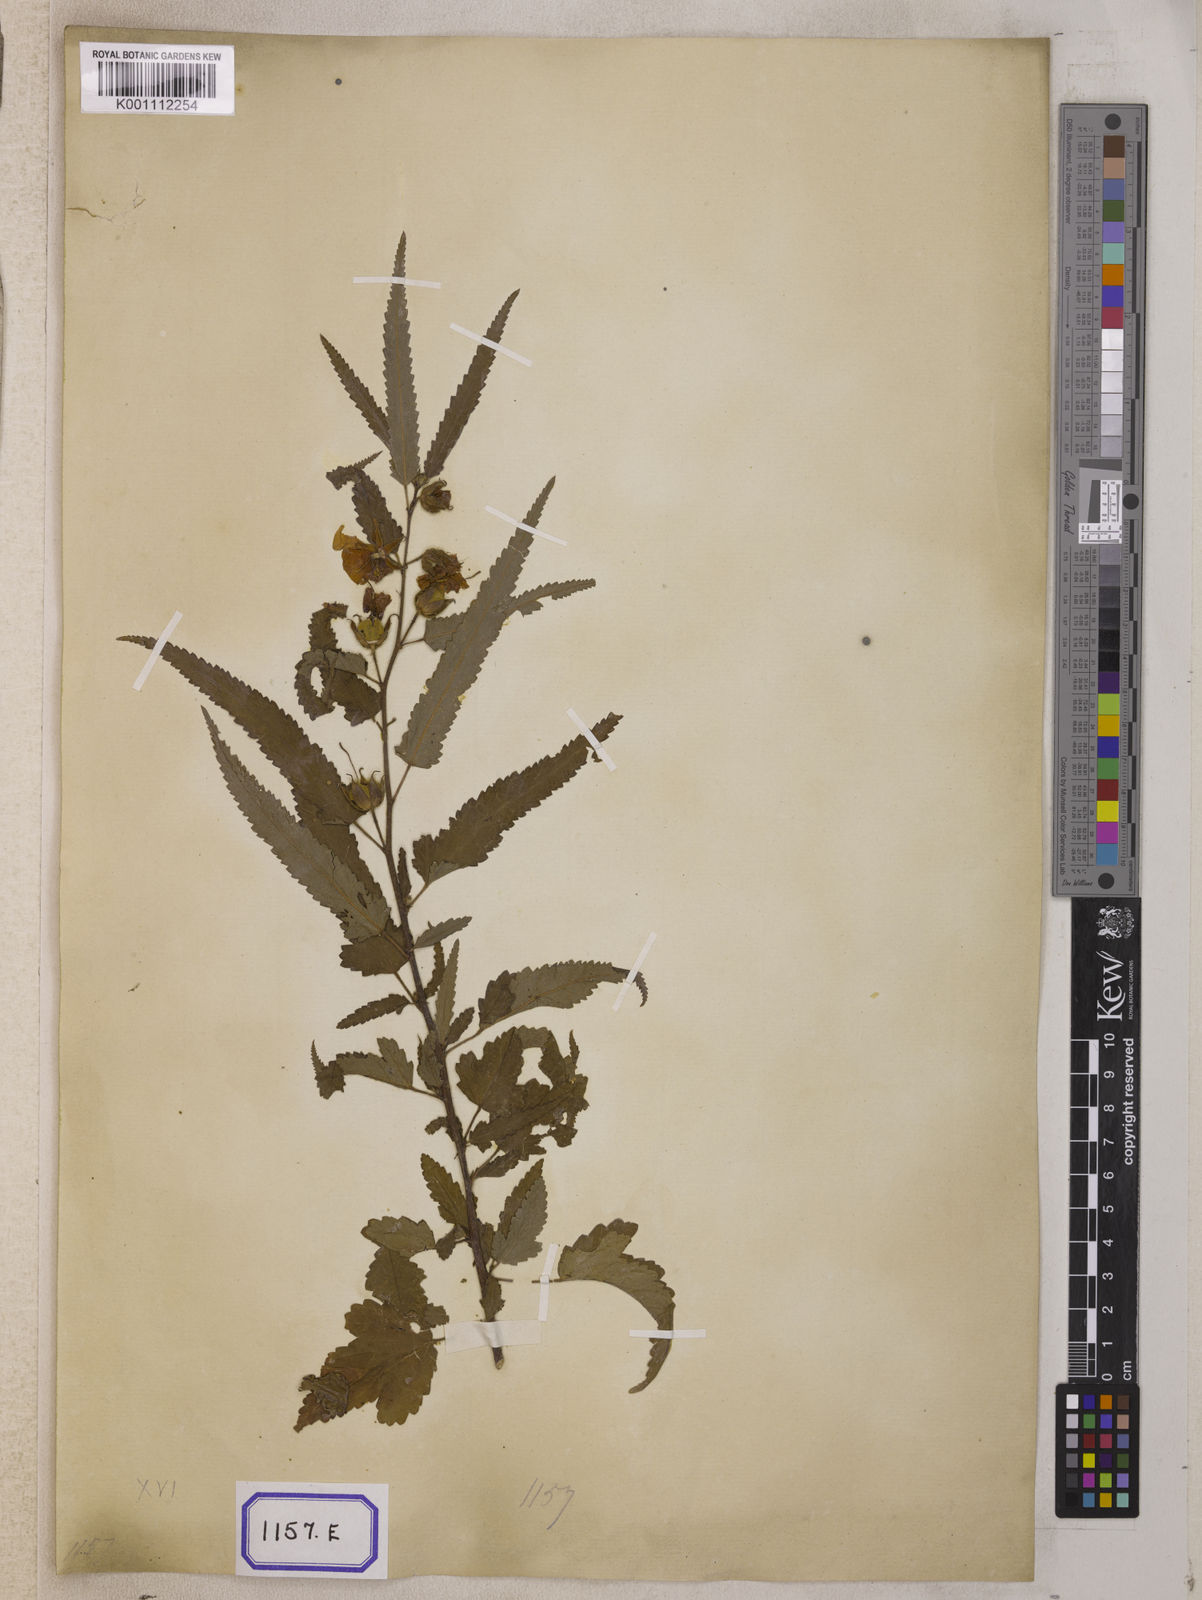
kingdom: Plantae
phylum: Tracheophyta
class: Magnoliopsida
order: Malvales
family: Malvaceae
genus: Pentapetes
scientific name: Pentapetes phoenicea
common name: Copper-cups
